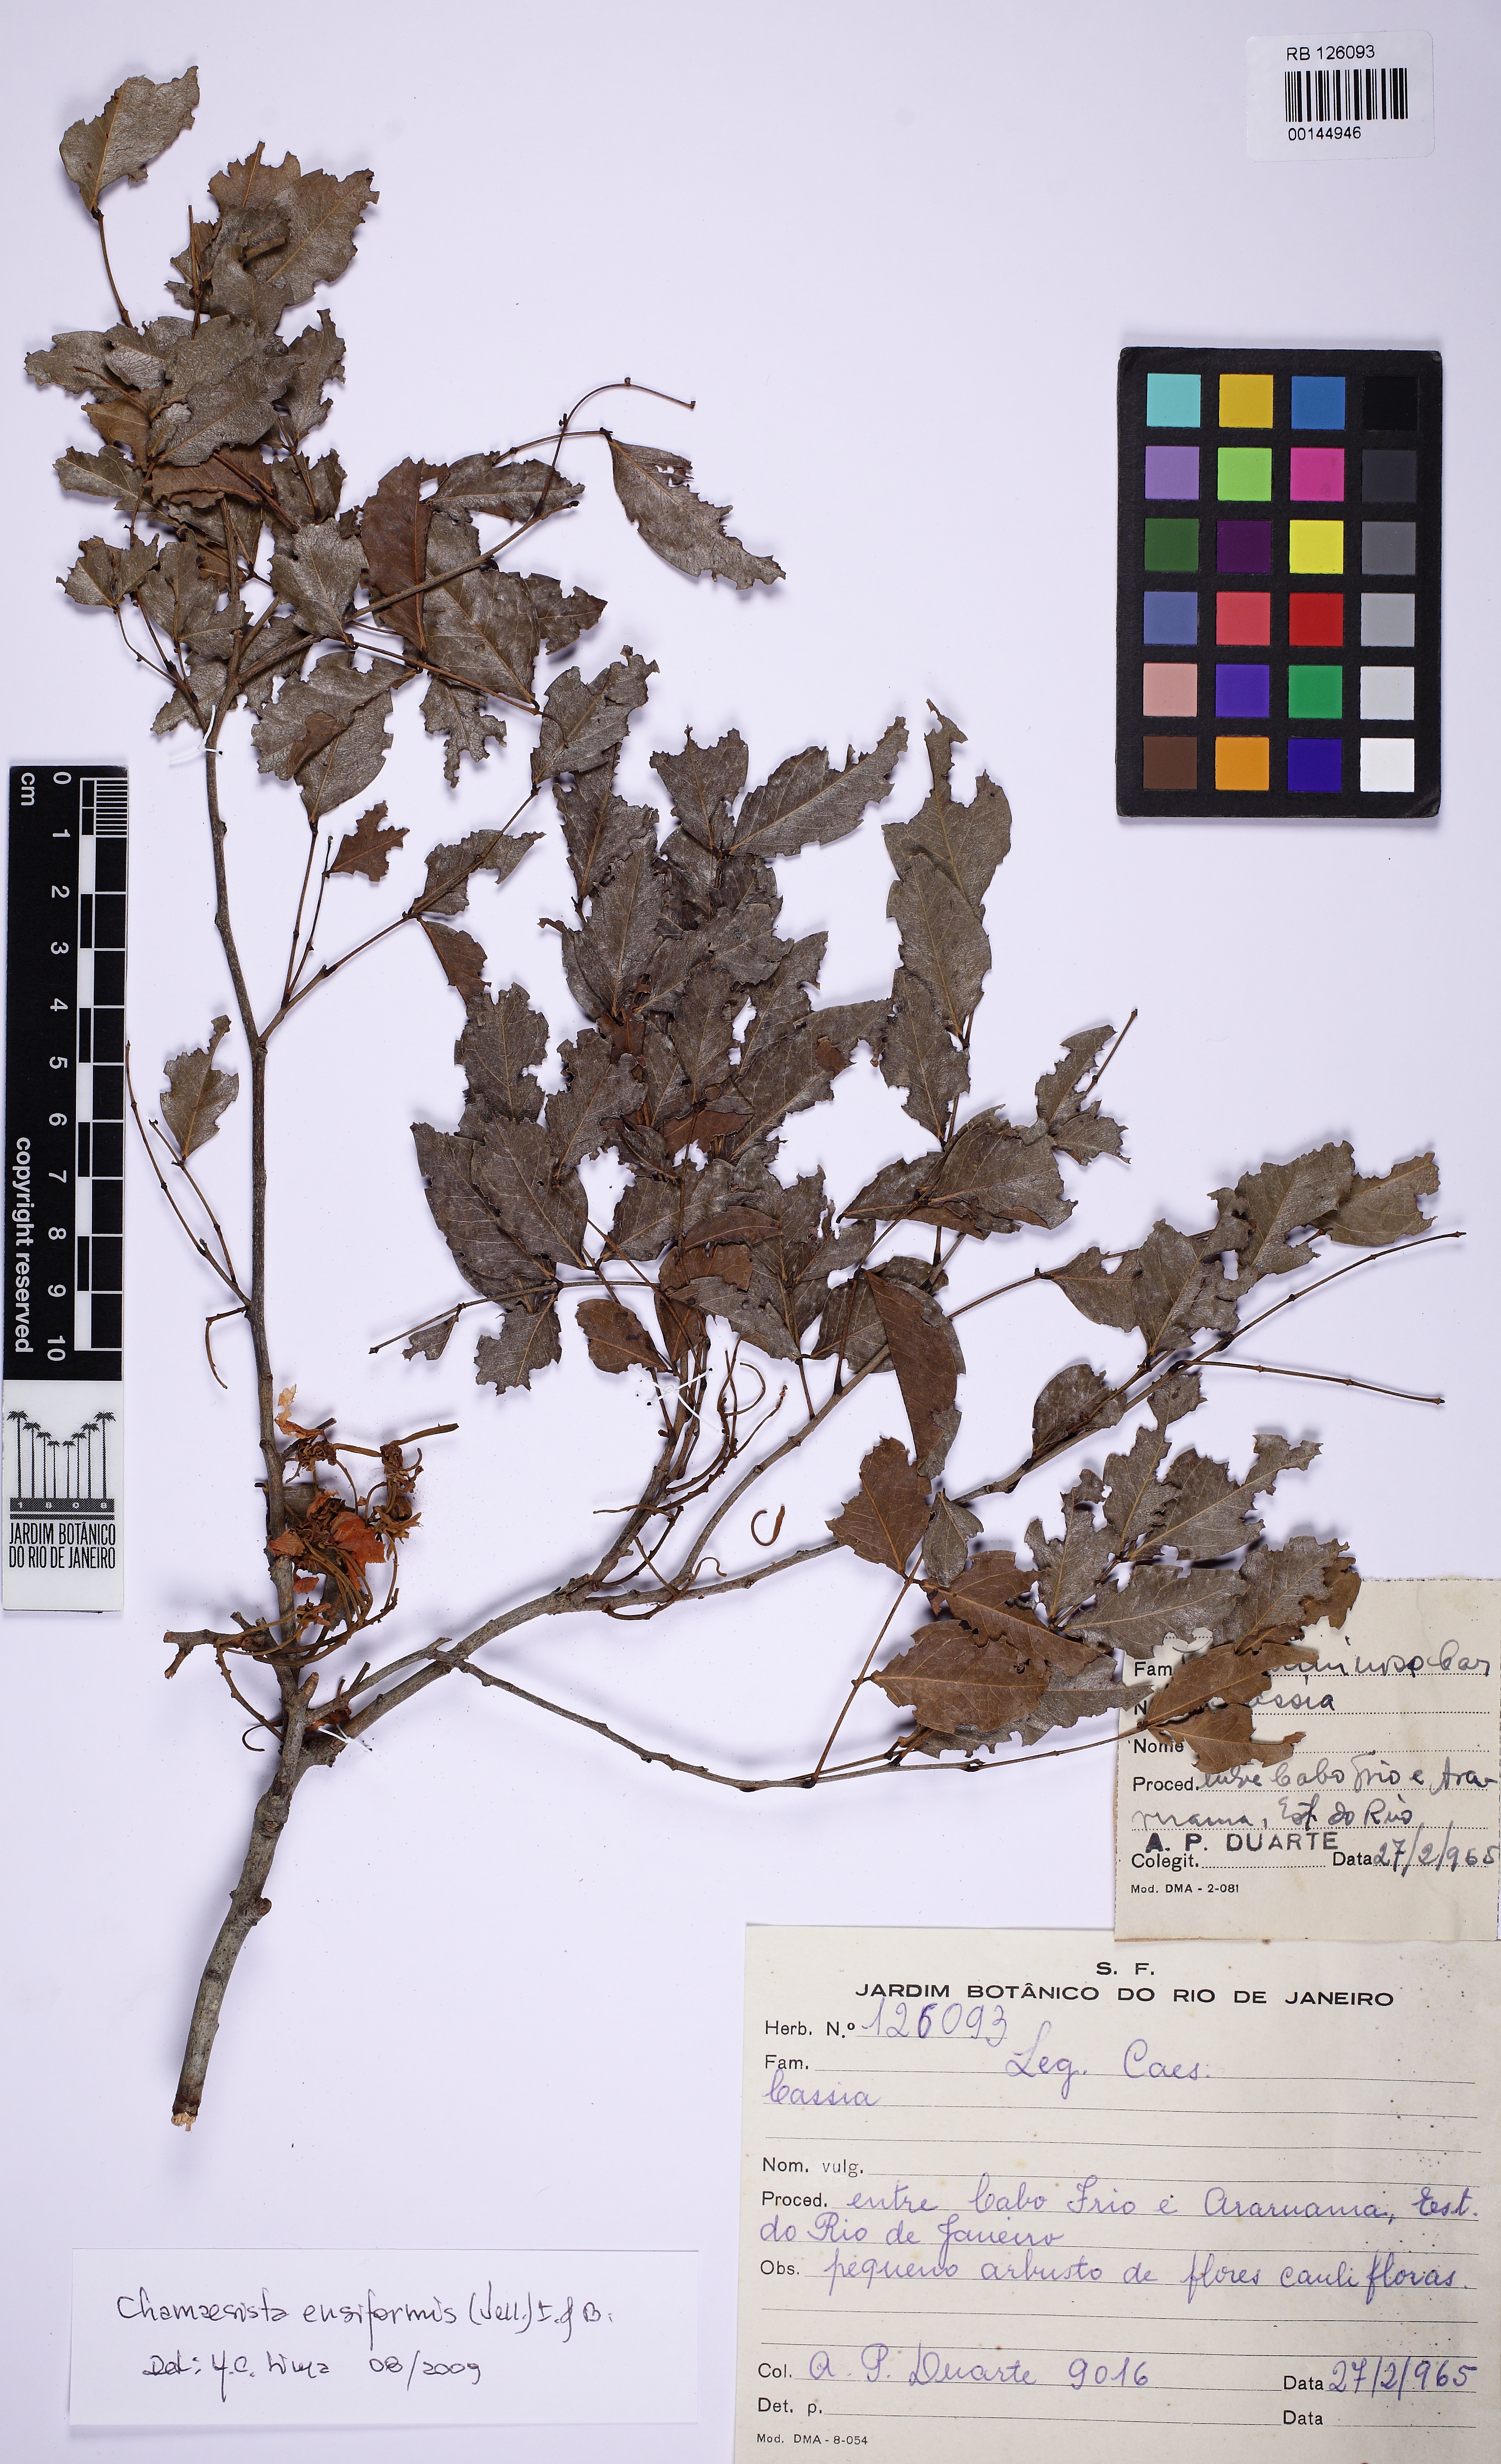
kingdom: Plantae
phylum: Tracheophyta
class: Magnoliopsida
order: Fabales
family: Fabaceae
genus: Cassia
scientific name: Cassia
